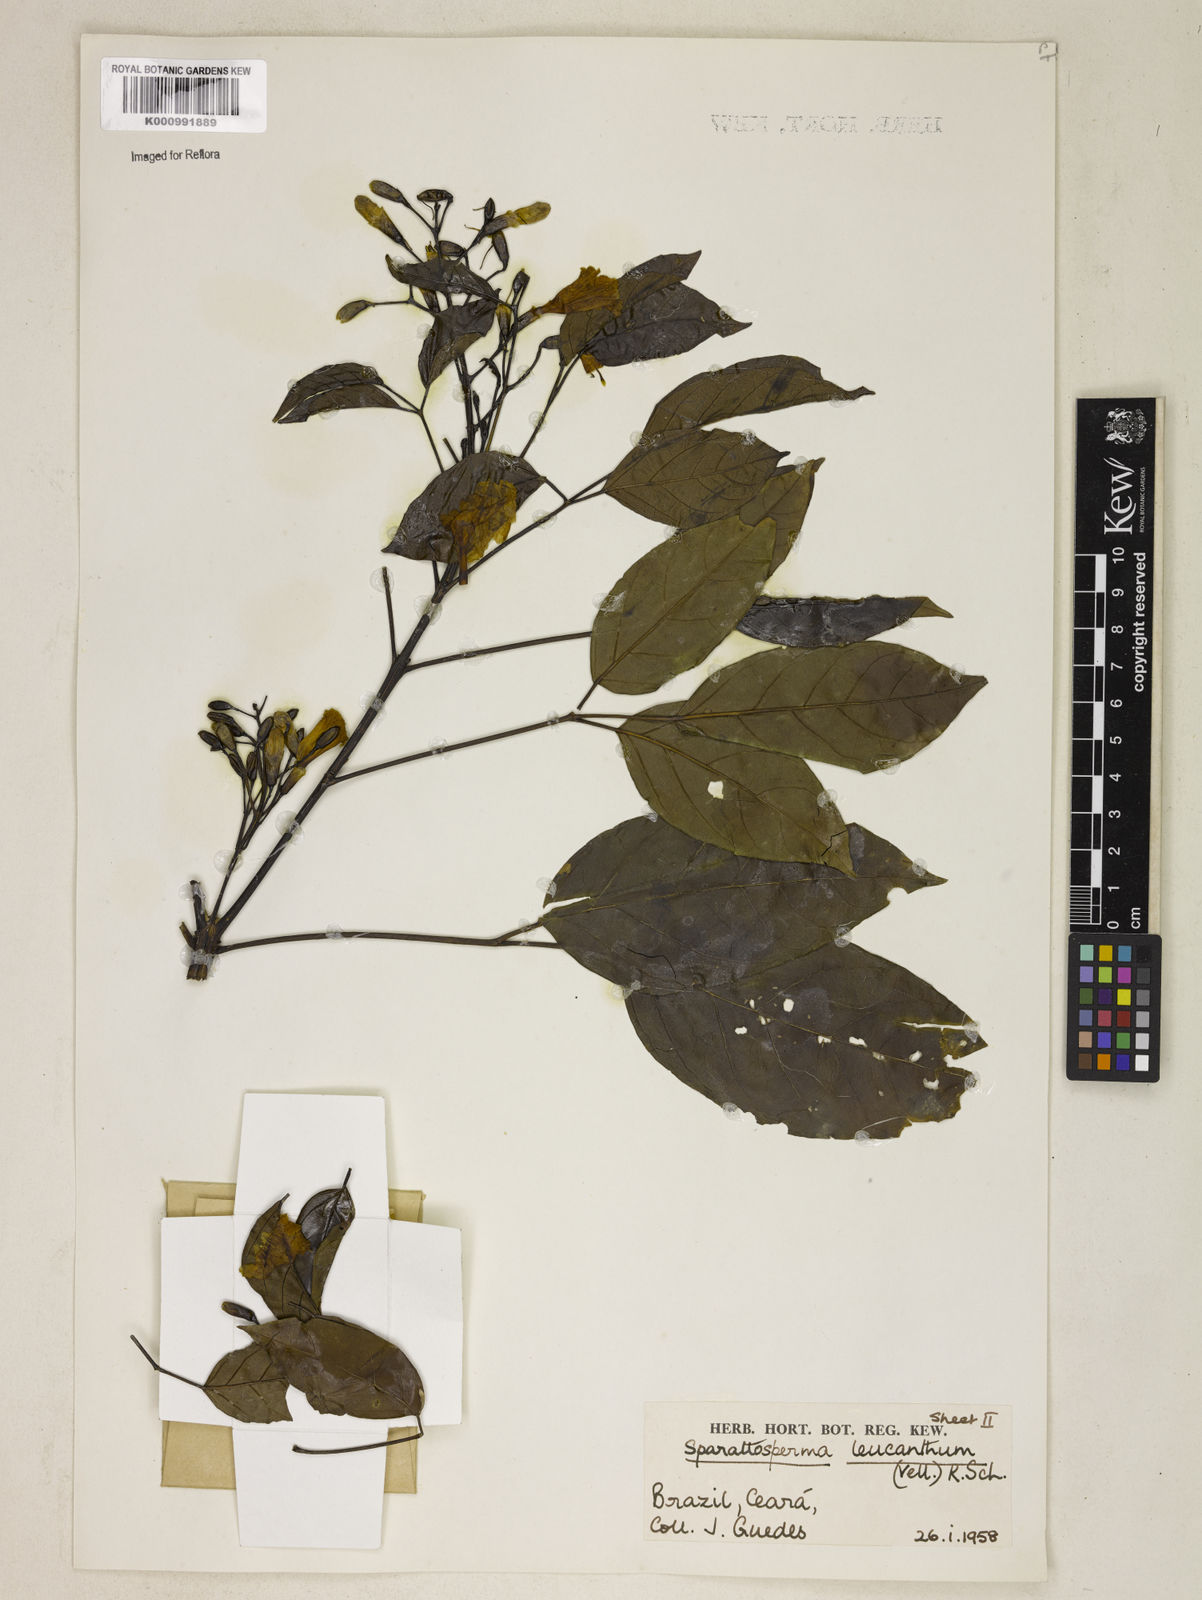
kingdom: Plantae
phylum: Tracheophyta
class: Magnoliopsida
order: Lamiales
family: Bignoniaceae
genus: Sparattosperma
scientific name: Sparattosperma leucanthum
